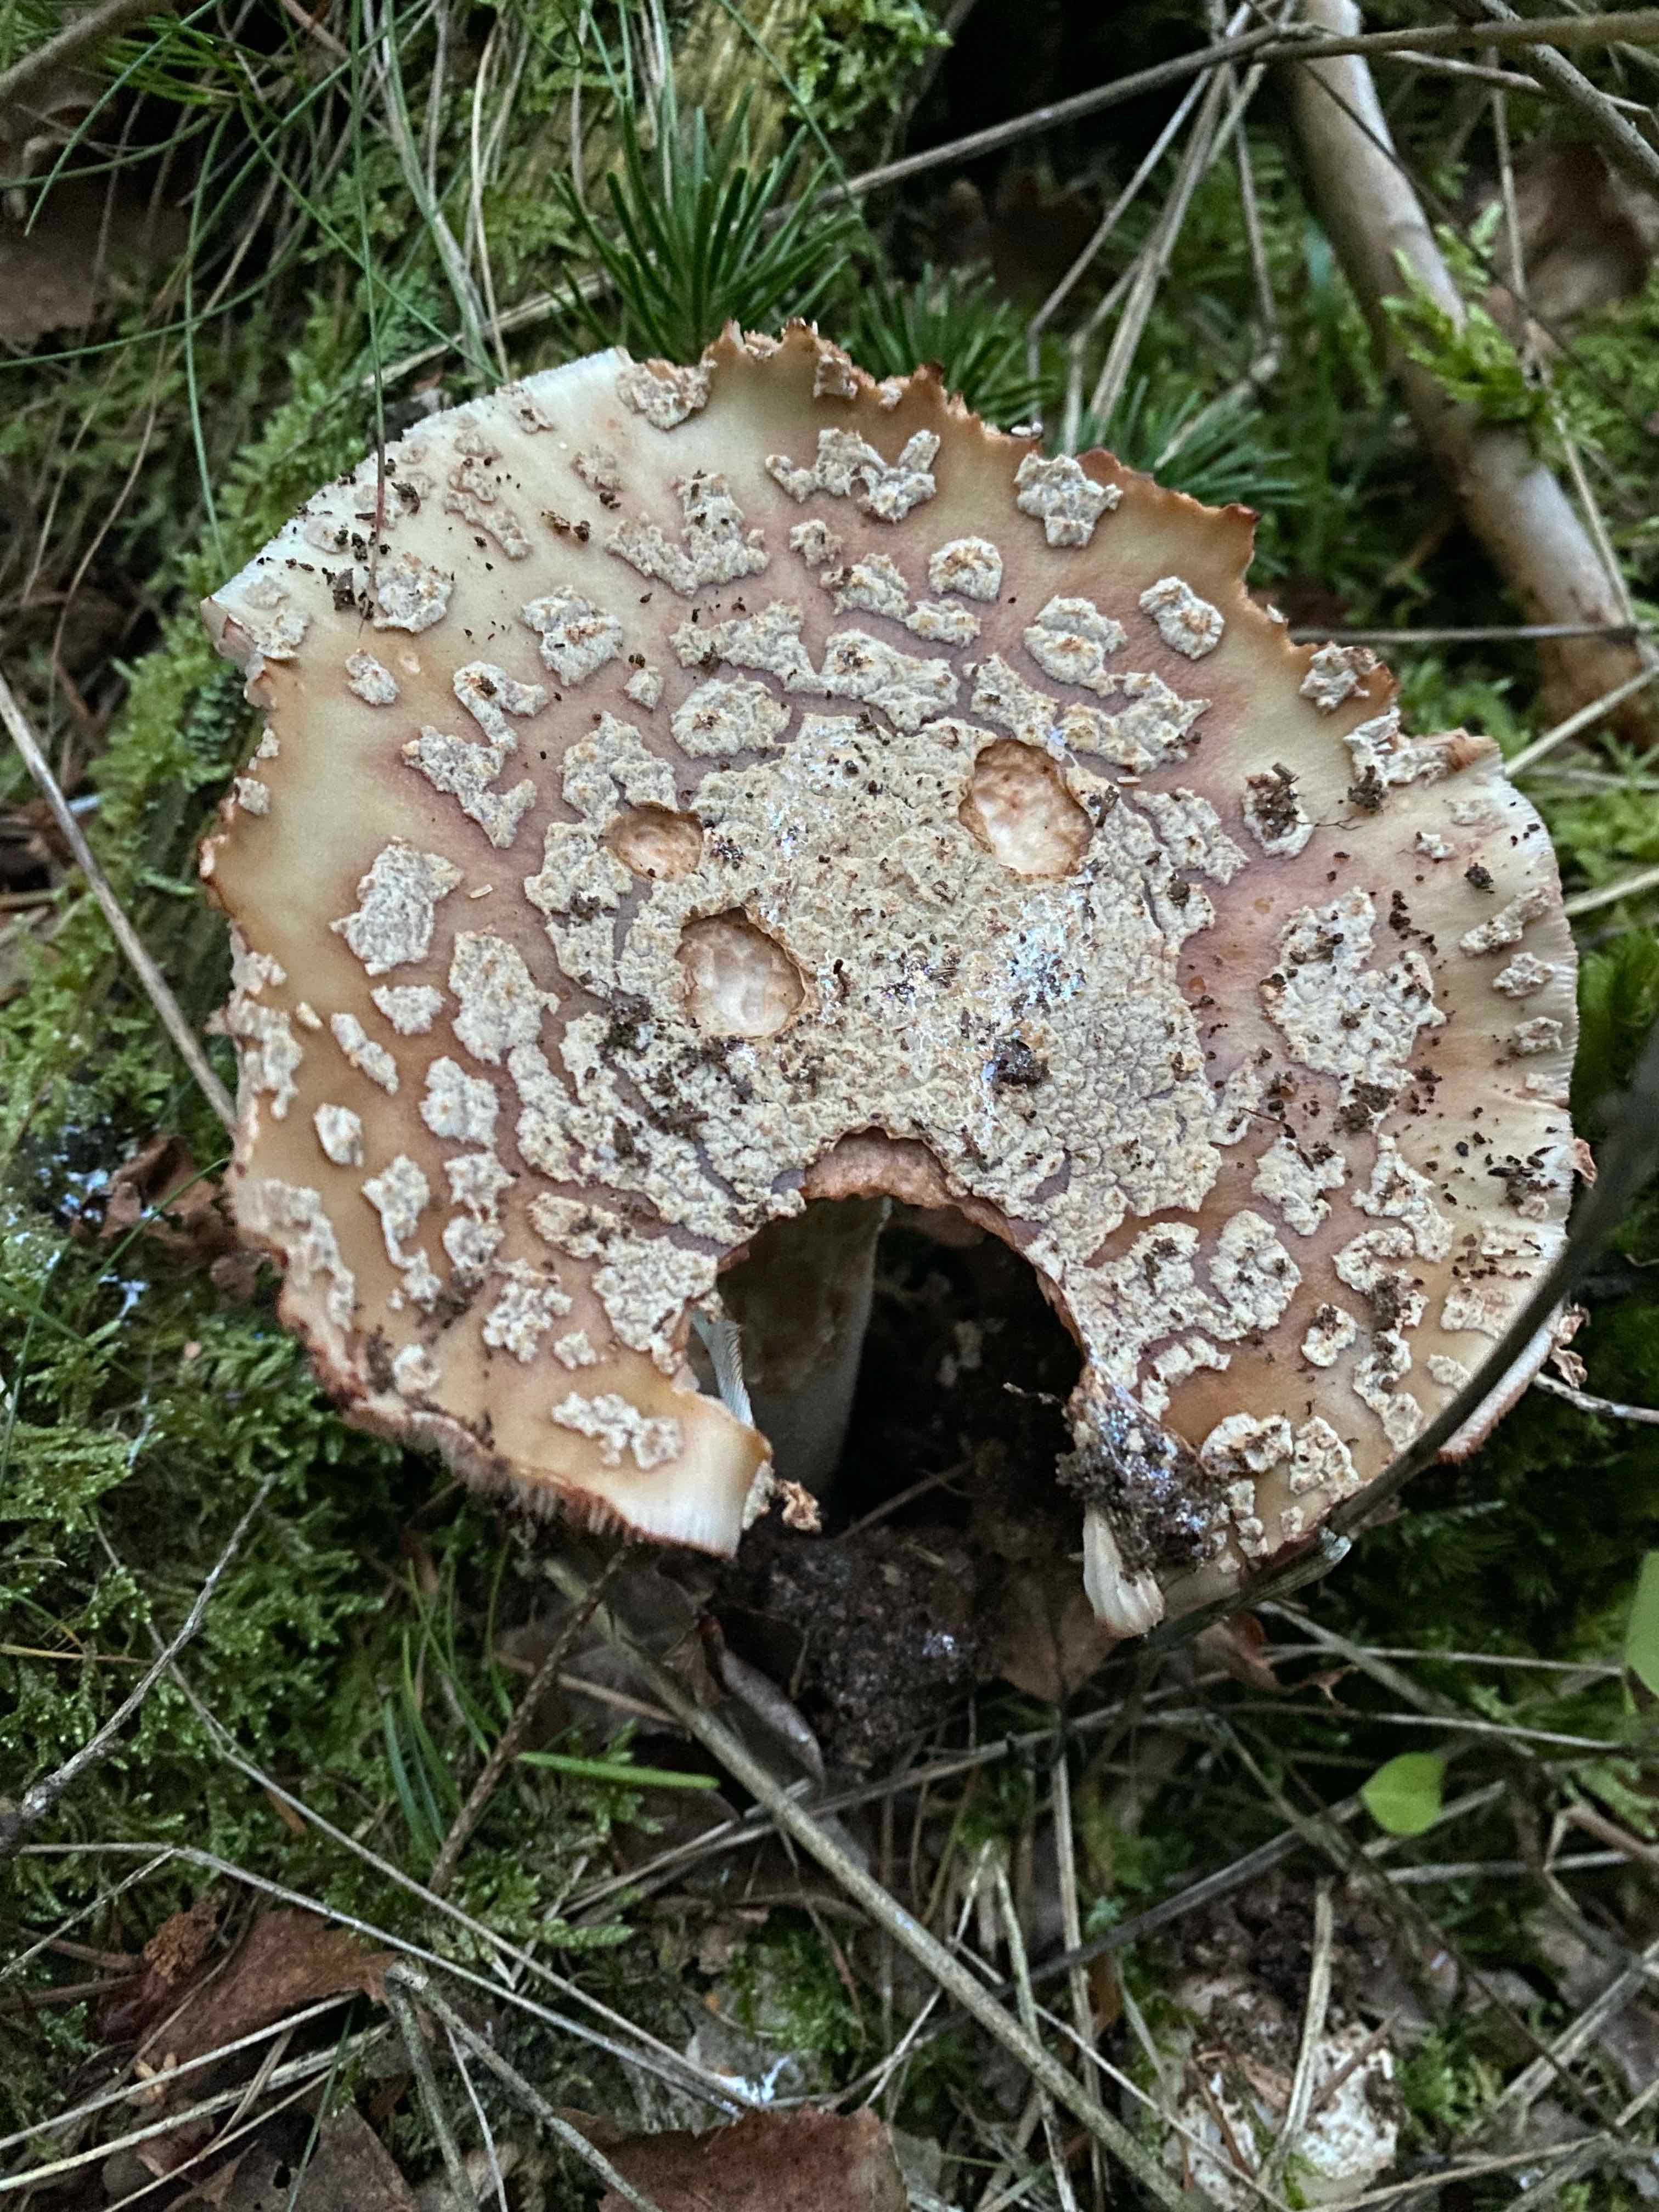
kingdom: Fungi
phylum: Basidiomycota
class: Agaricomycetes
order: Agaricales
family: Amanitaceae
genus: Amanita
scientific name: Amanita rubescens
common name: rødmende fluesvamp
